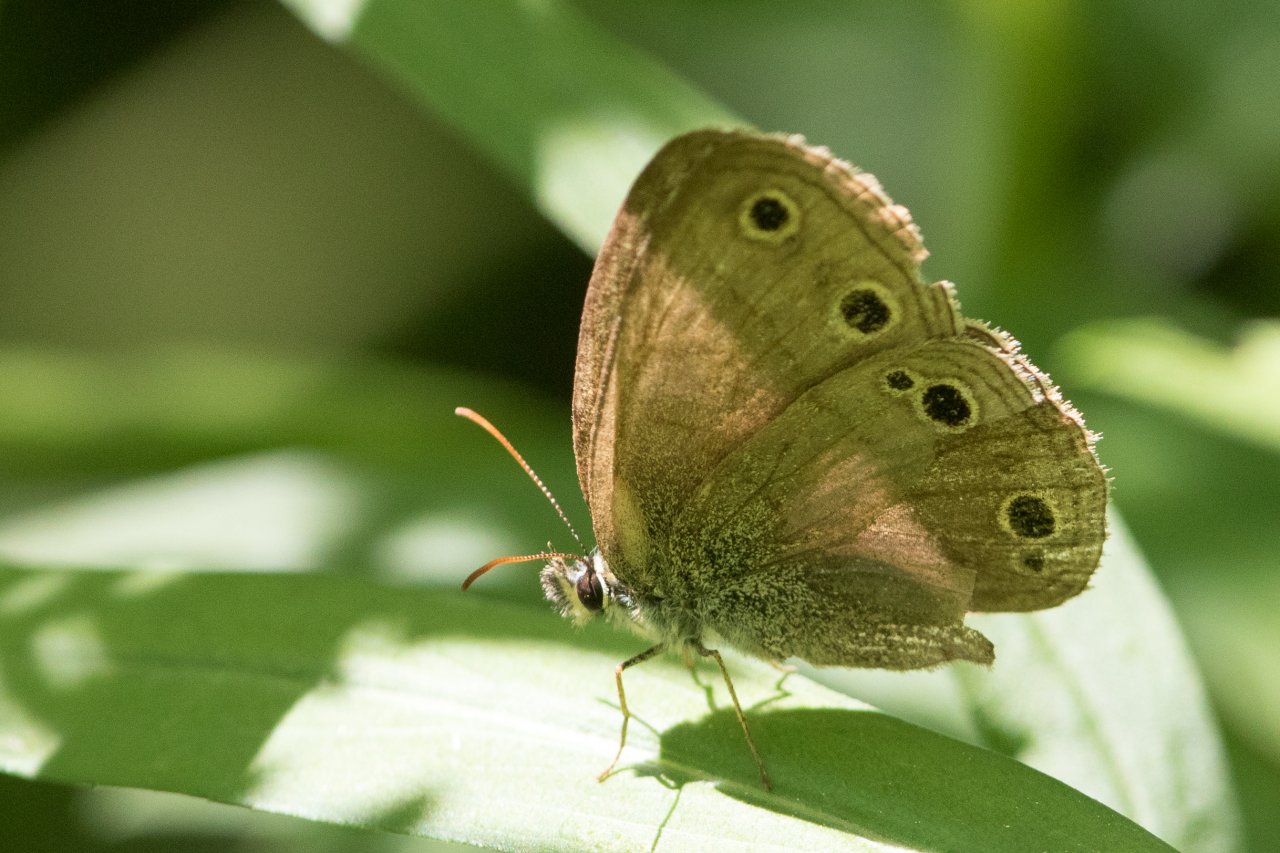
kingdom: Animalia
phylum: Arthropoda
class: Insecta
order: Lepidoptera
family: Nymphalidae
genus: Euptychia
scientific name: Euptychia cymela
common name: Little Wood Satyr
